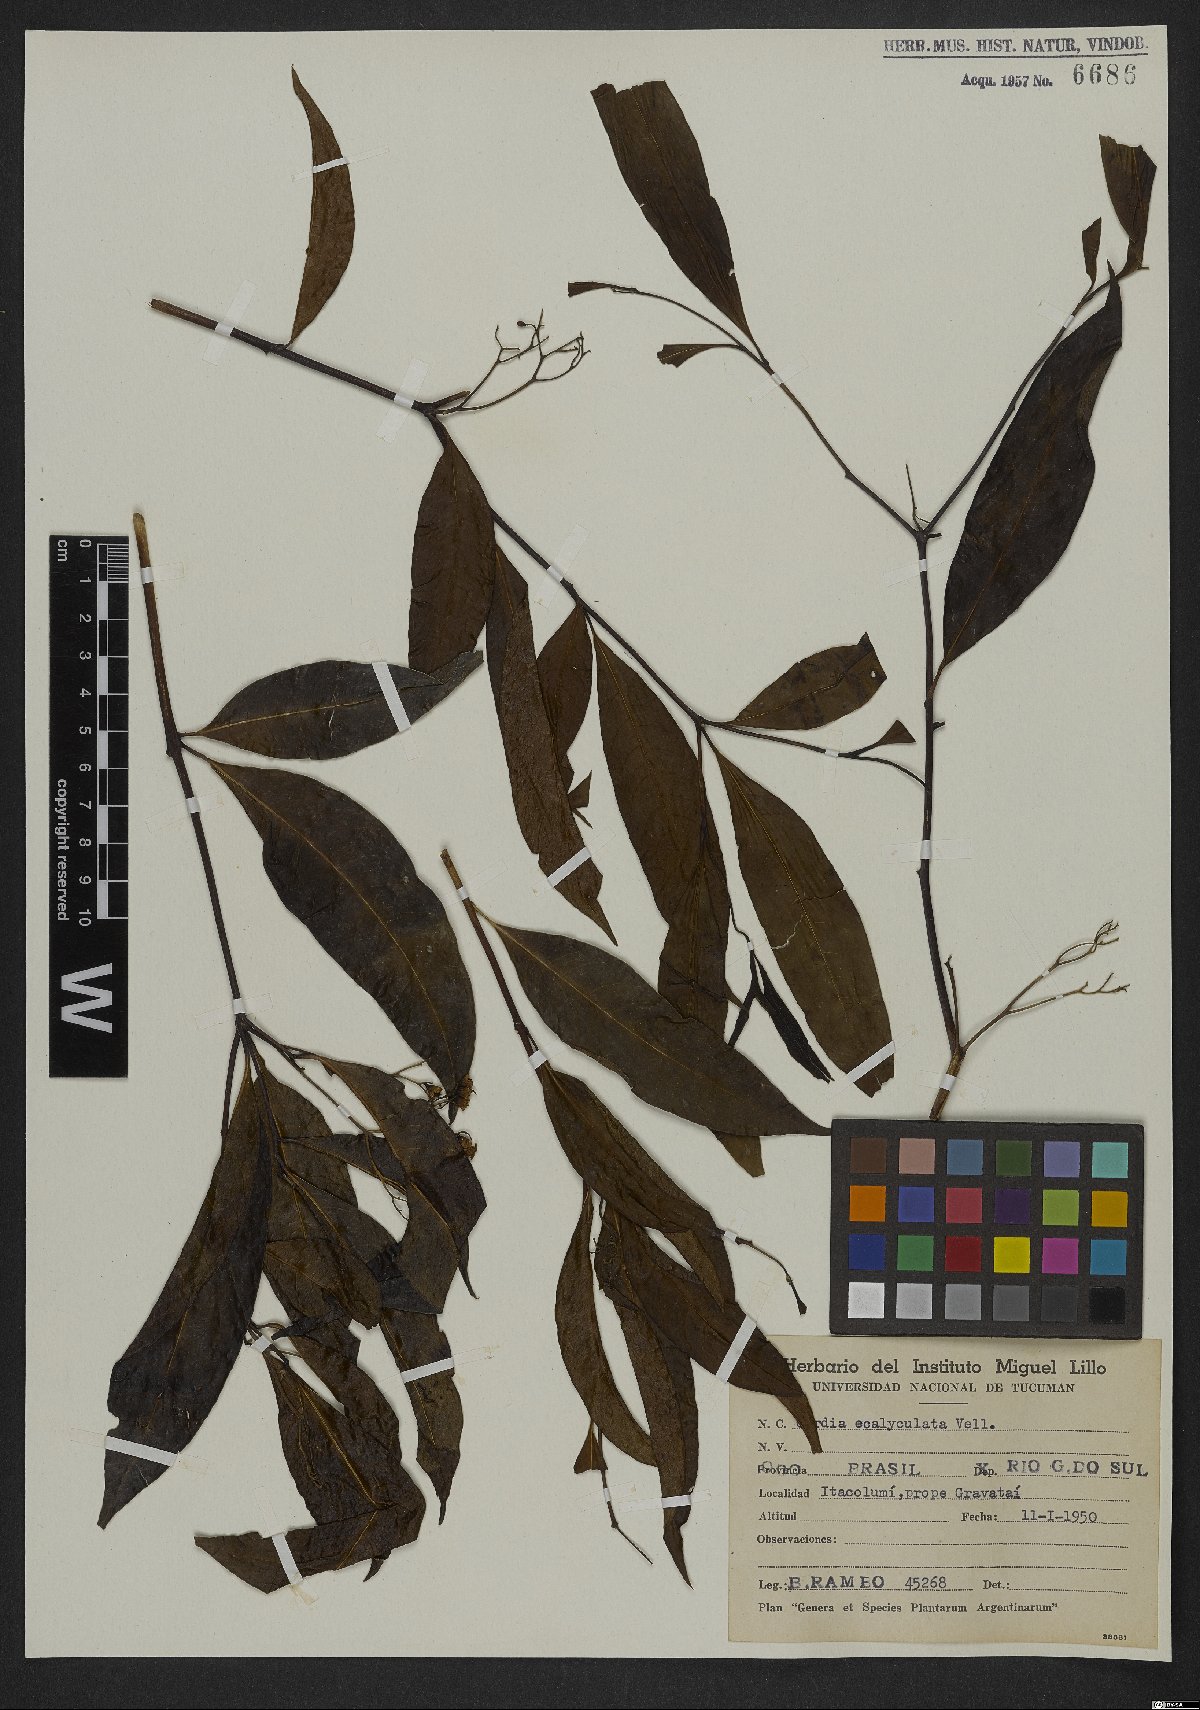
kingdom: Plantae
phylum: Tracheophyta
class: Magnoliopsida
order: Boraginales
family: Cordiaceae
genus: Cordia
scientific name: Cordia ecalyculata
